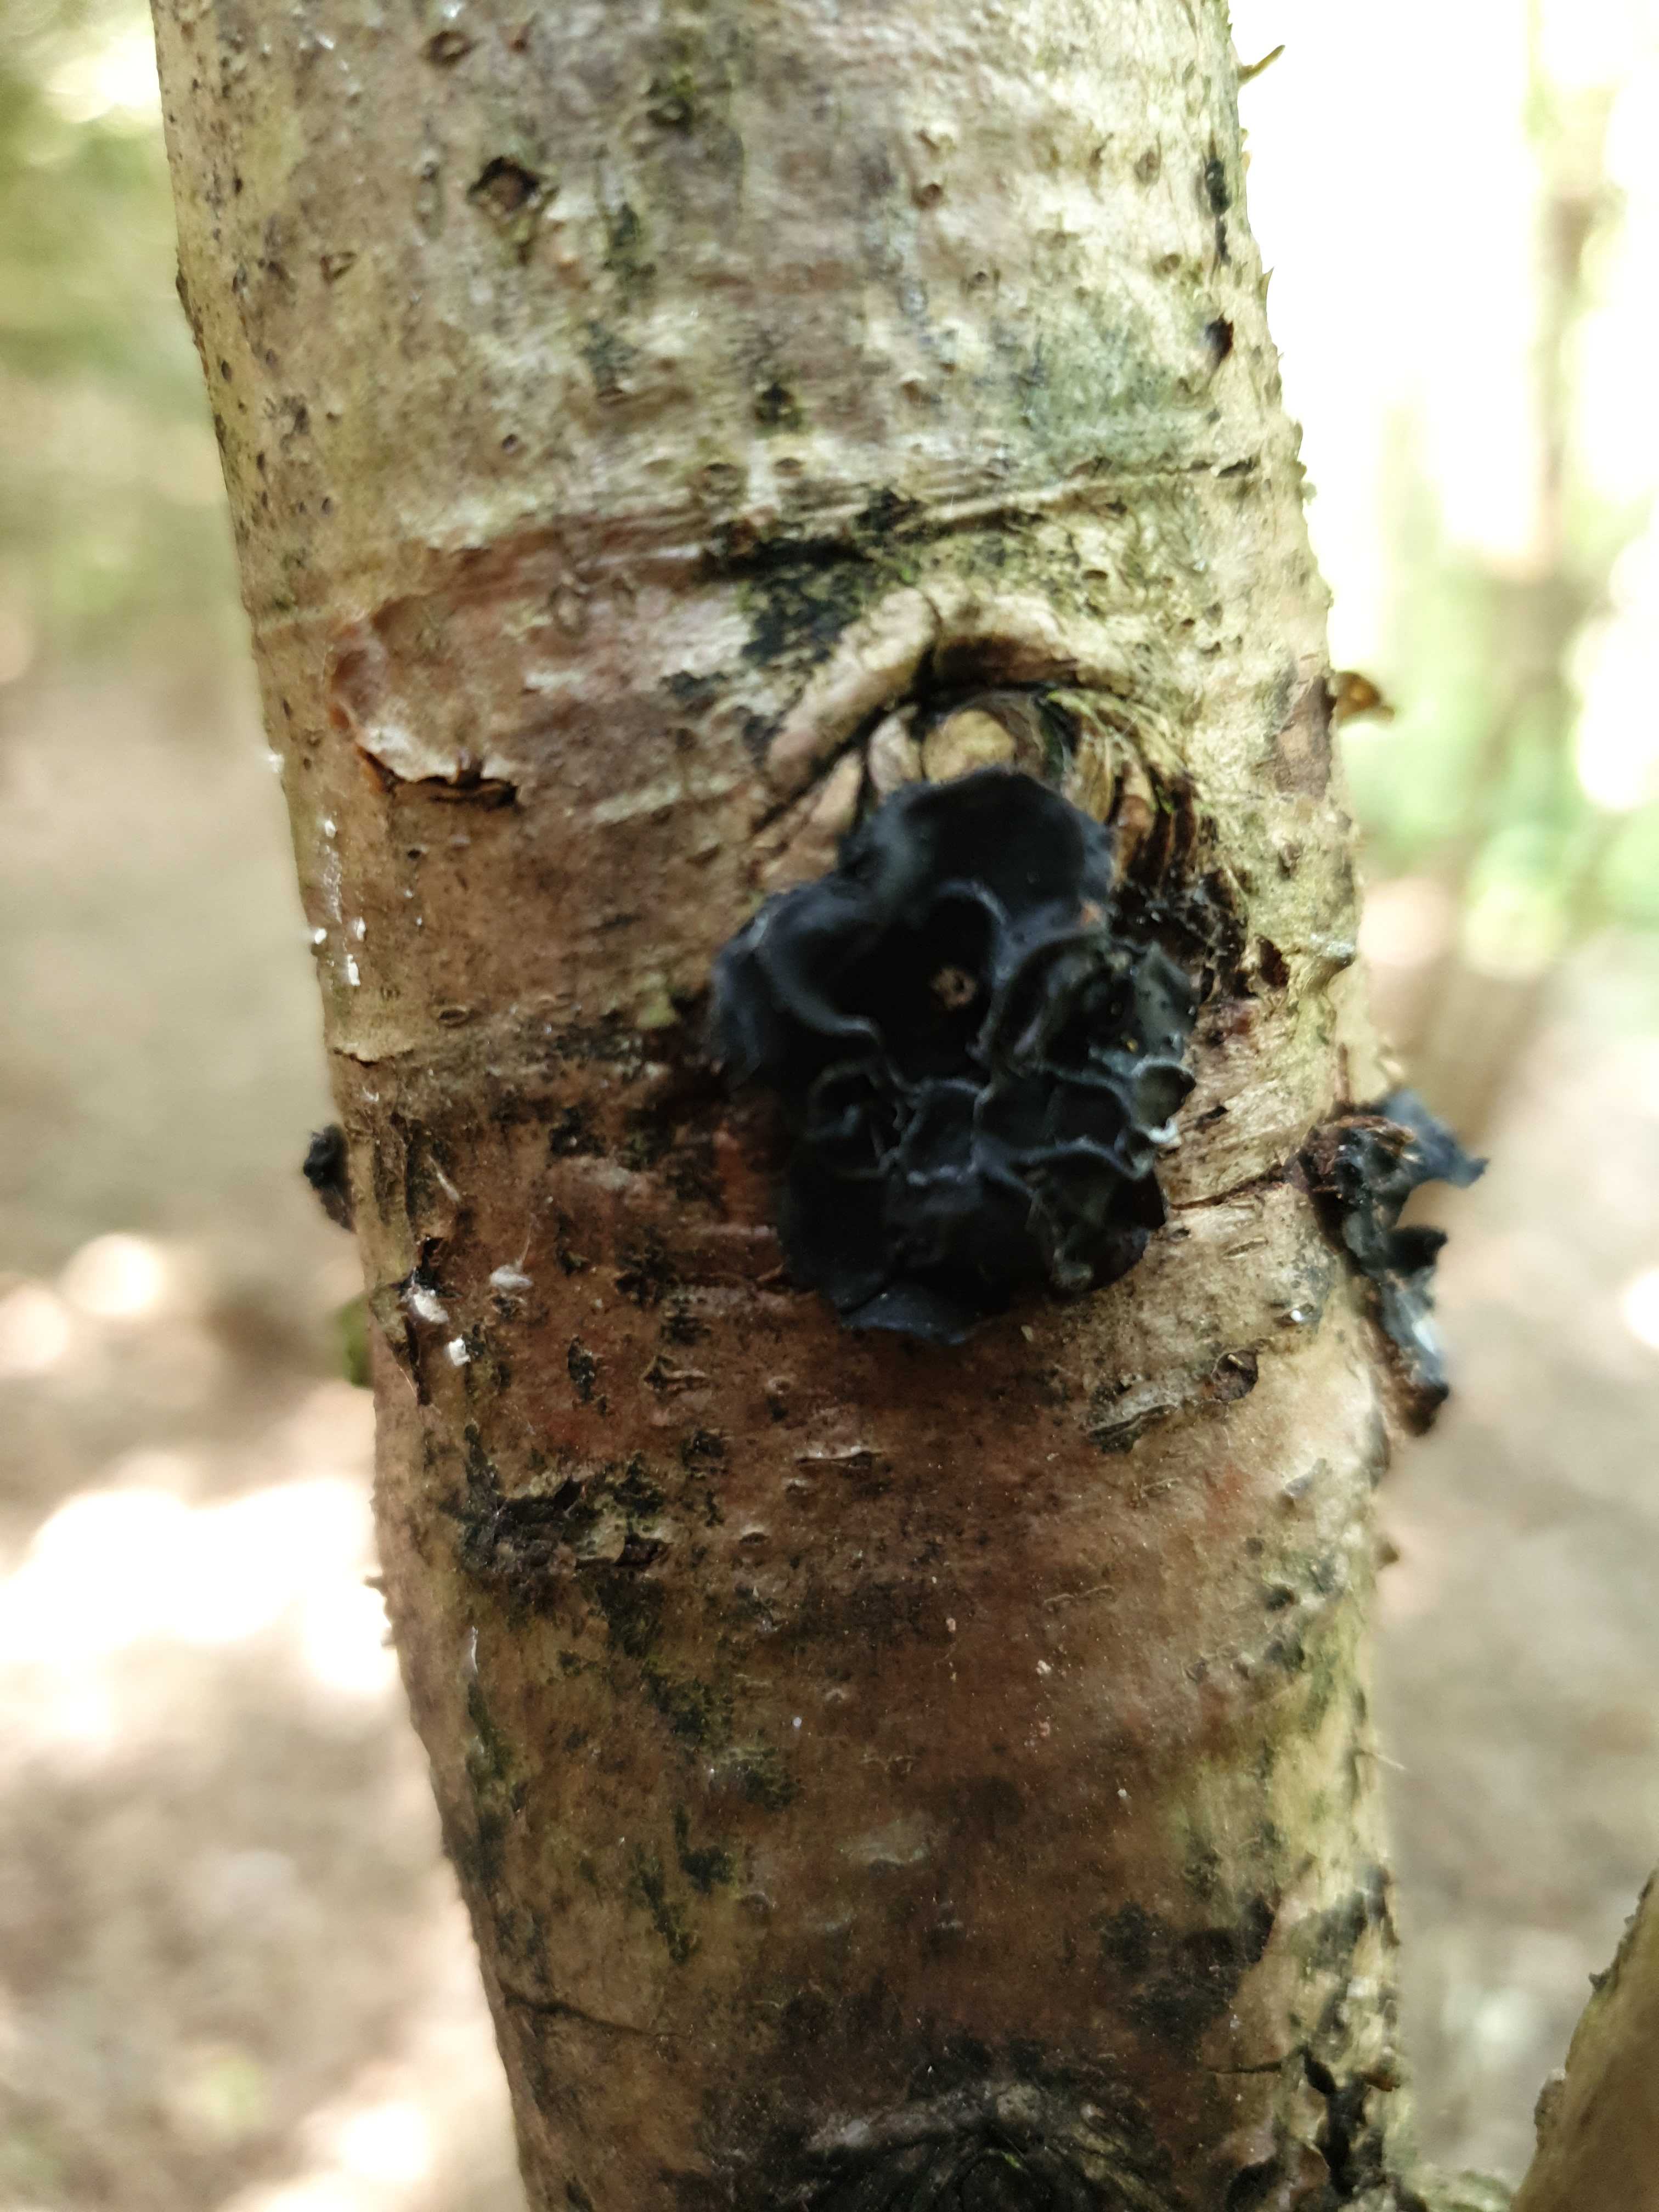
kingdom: Fungi
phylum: Basidiomycota
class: Agaricomycetes
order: Auriculariales
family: Auriculariaceae
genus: Exidia
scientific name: Exidia glandulosa
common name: ege-bævretop
